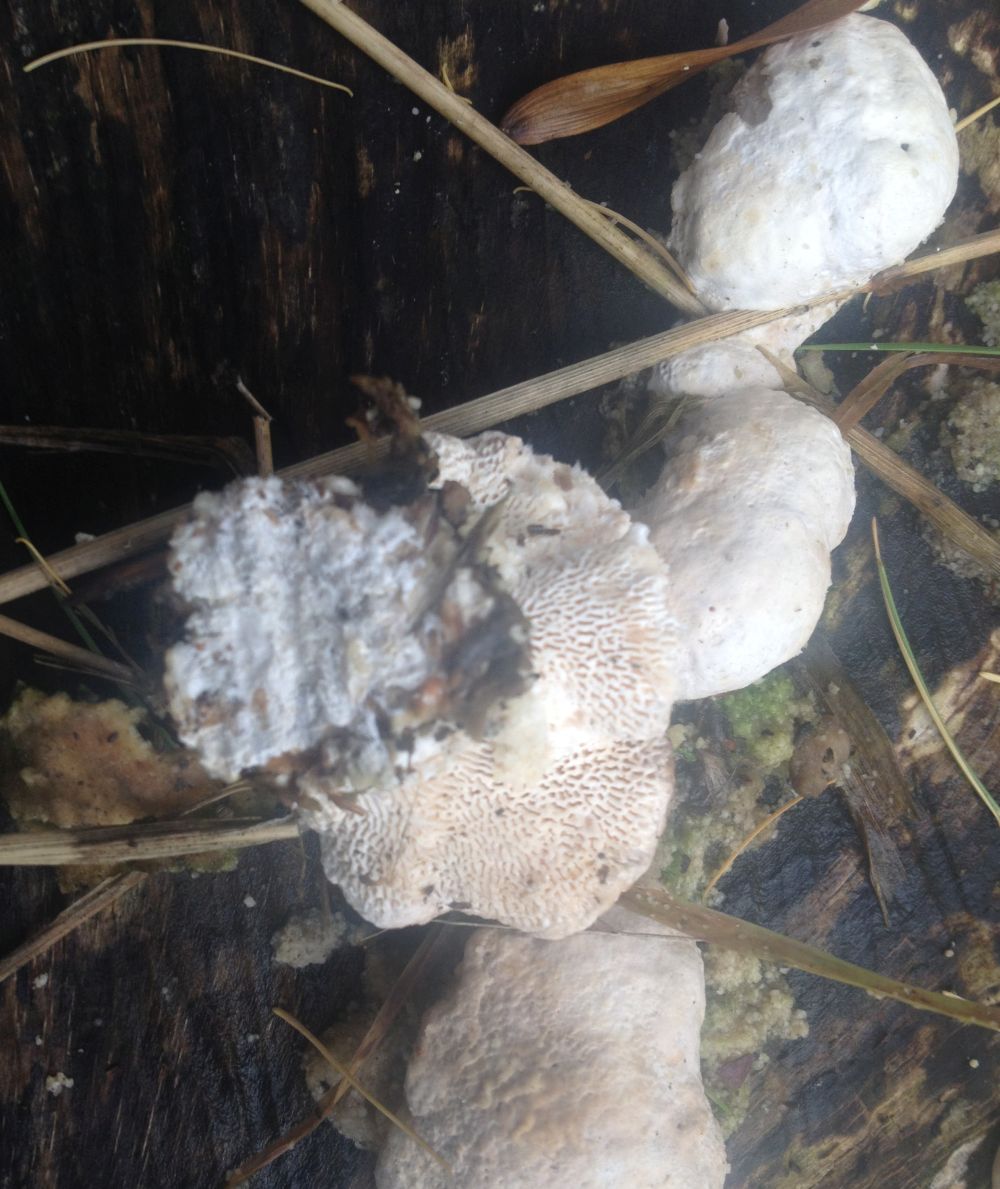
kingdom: Fungi
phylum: Basidiomycota
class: Agaricomycetes
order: Polyporales
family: Incrustoporiaceae
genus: Tyromyces
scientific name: Tyromyces lacteus
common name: mælkehvid kødporesvamp
